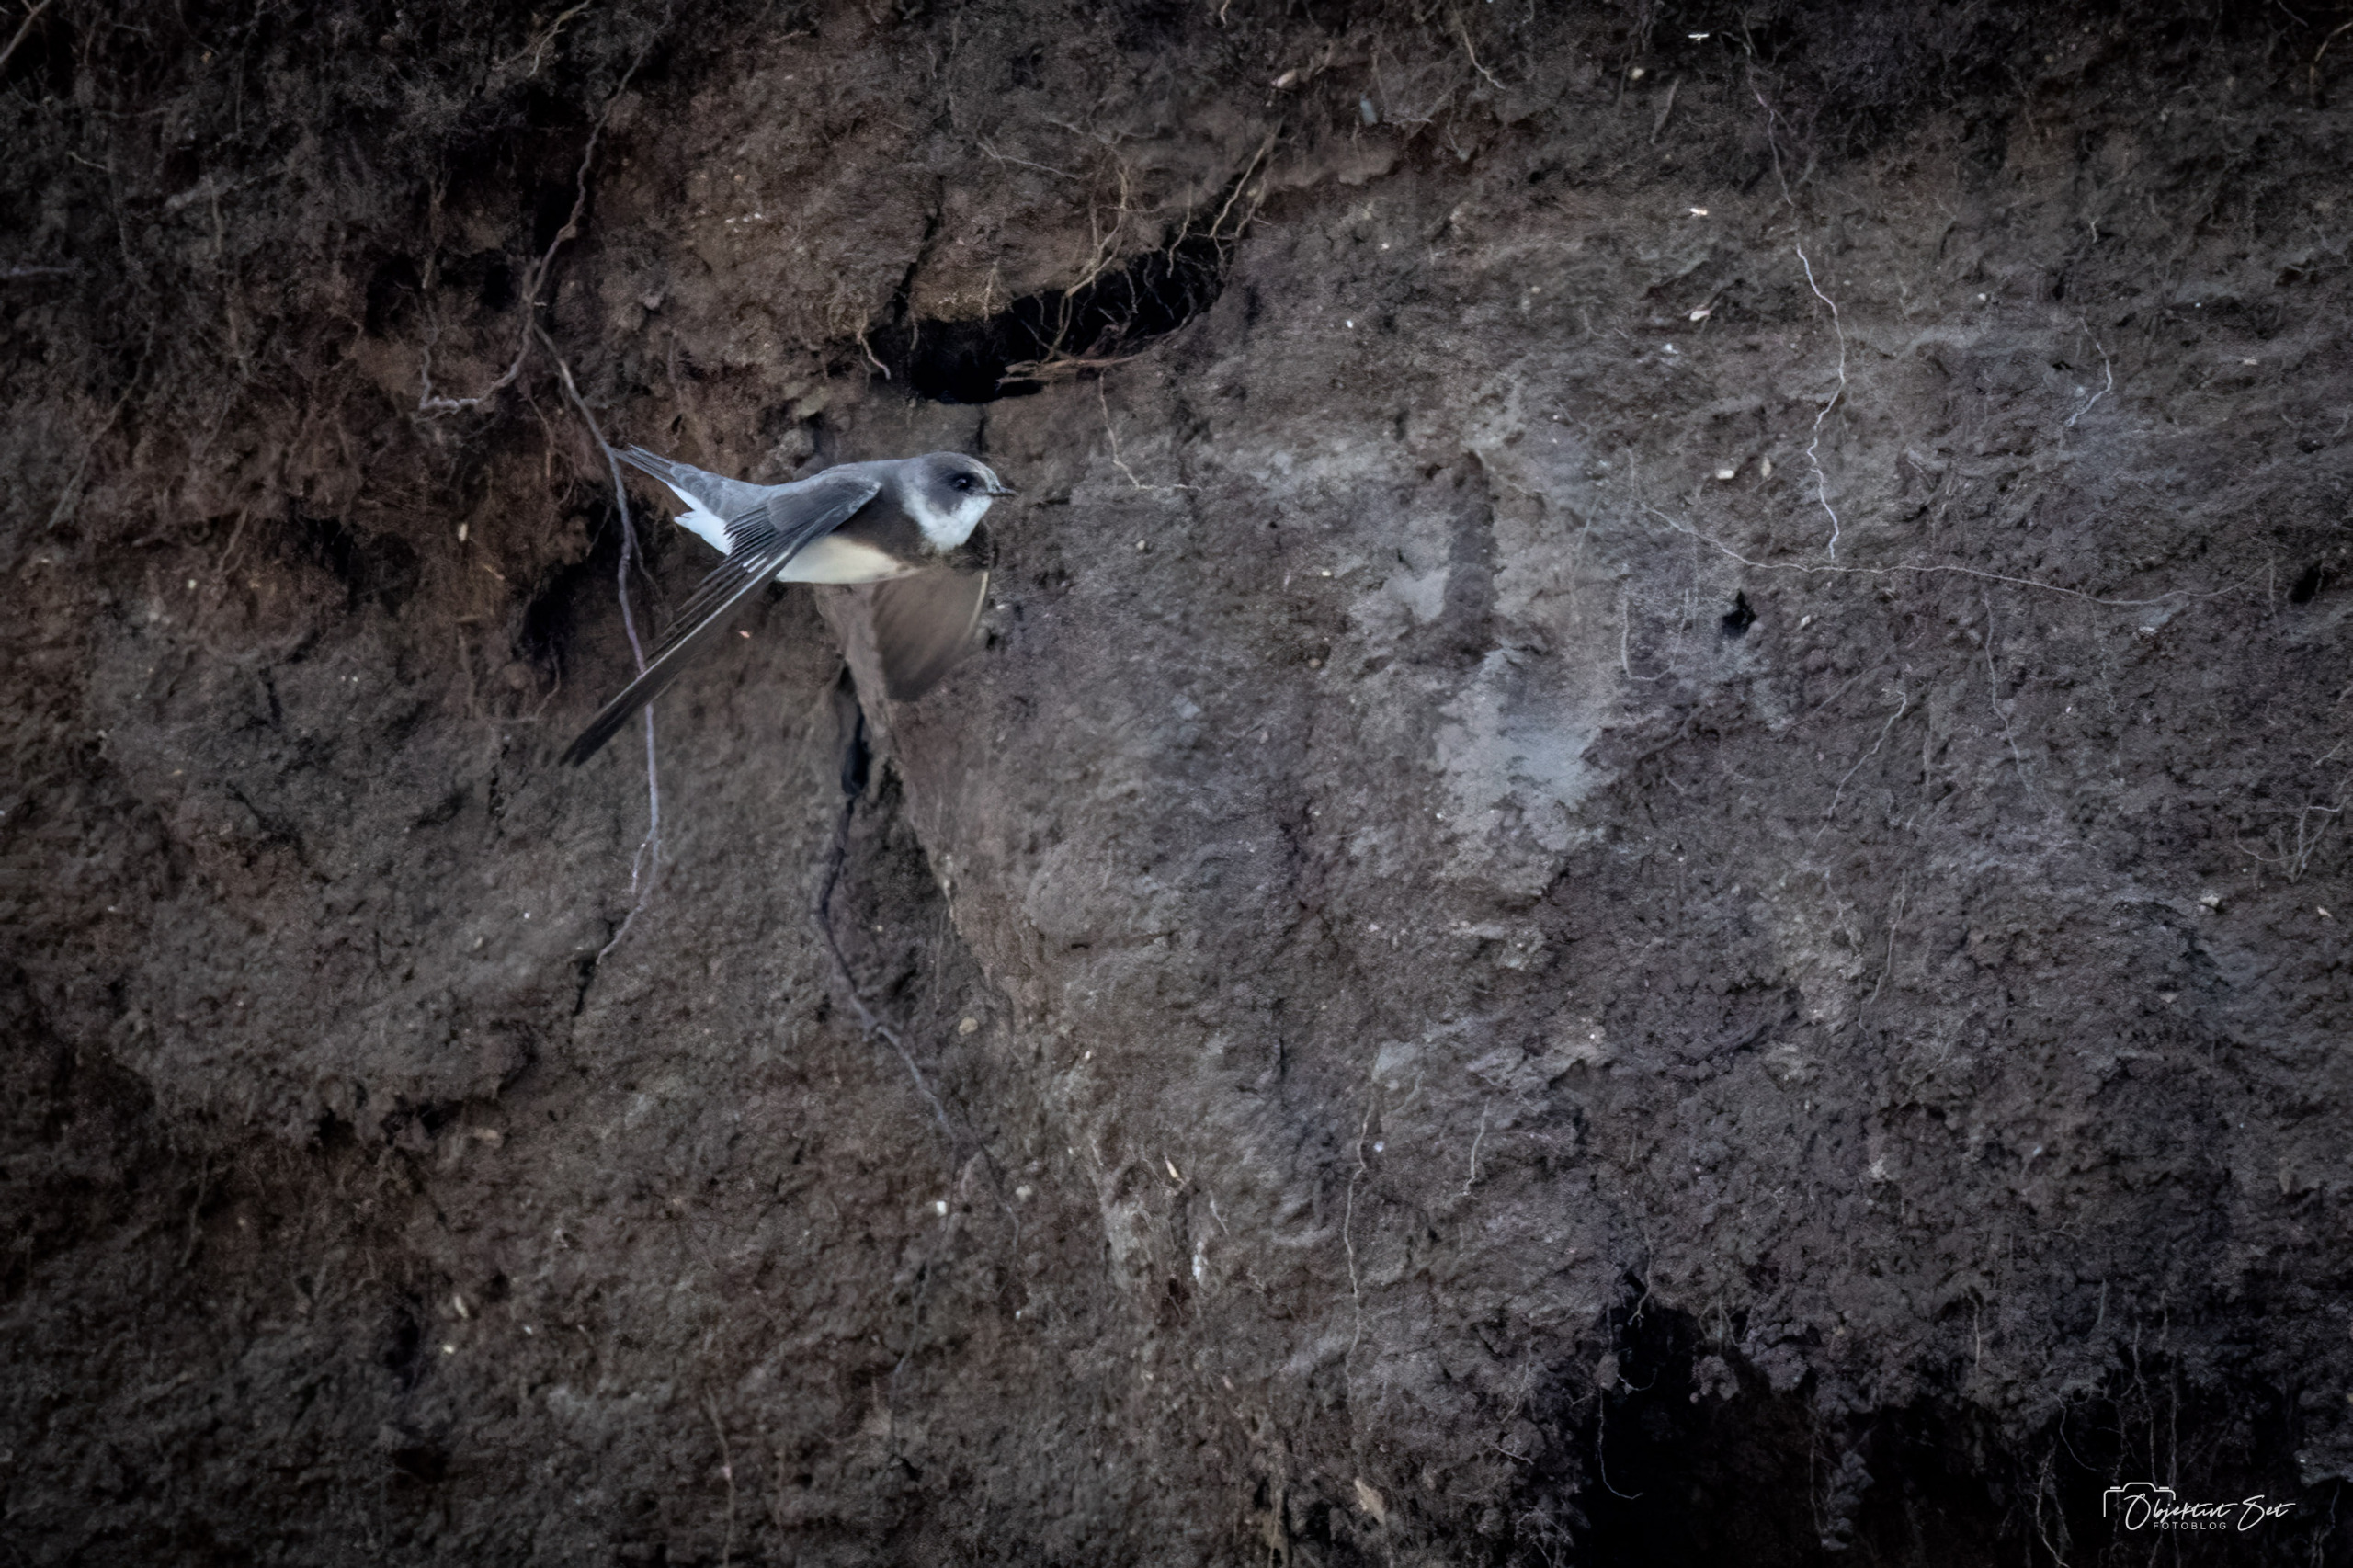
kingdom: Animalia
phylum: Chordata
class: Aves
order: Passeriformes
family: Hirundinidae
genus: Riparia
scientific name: Riparia riparia
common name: Digesvale
